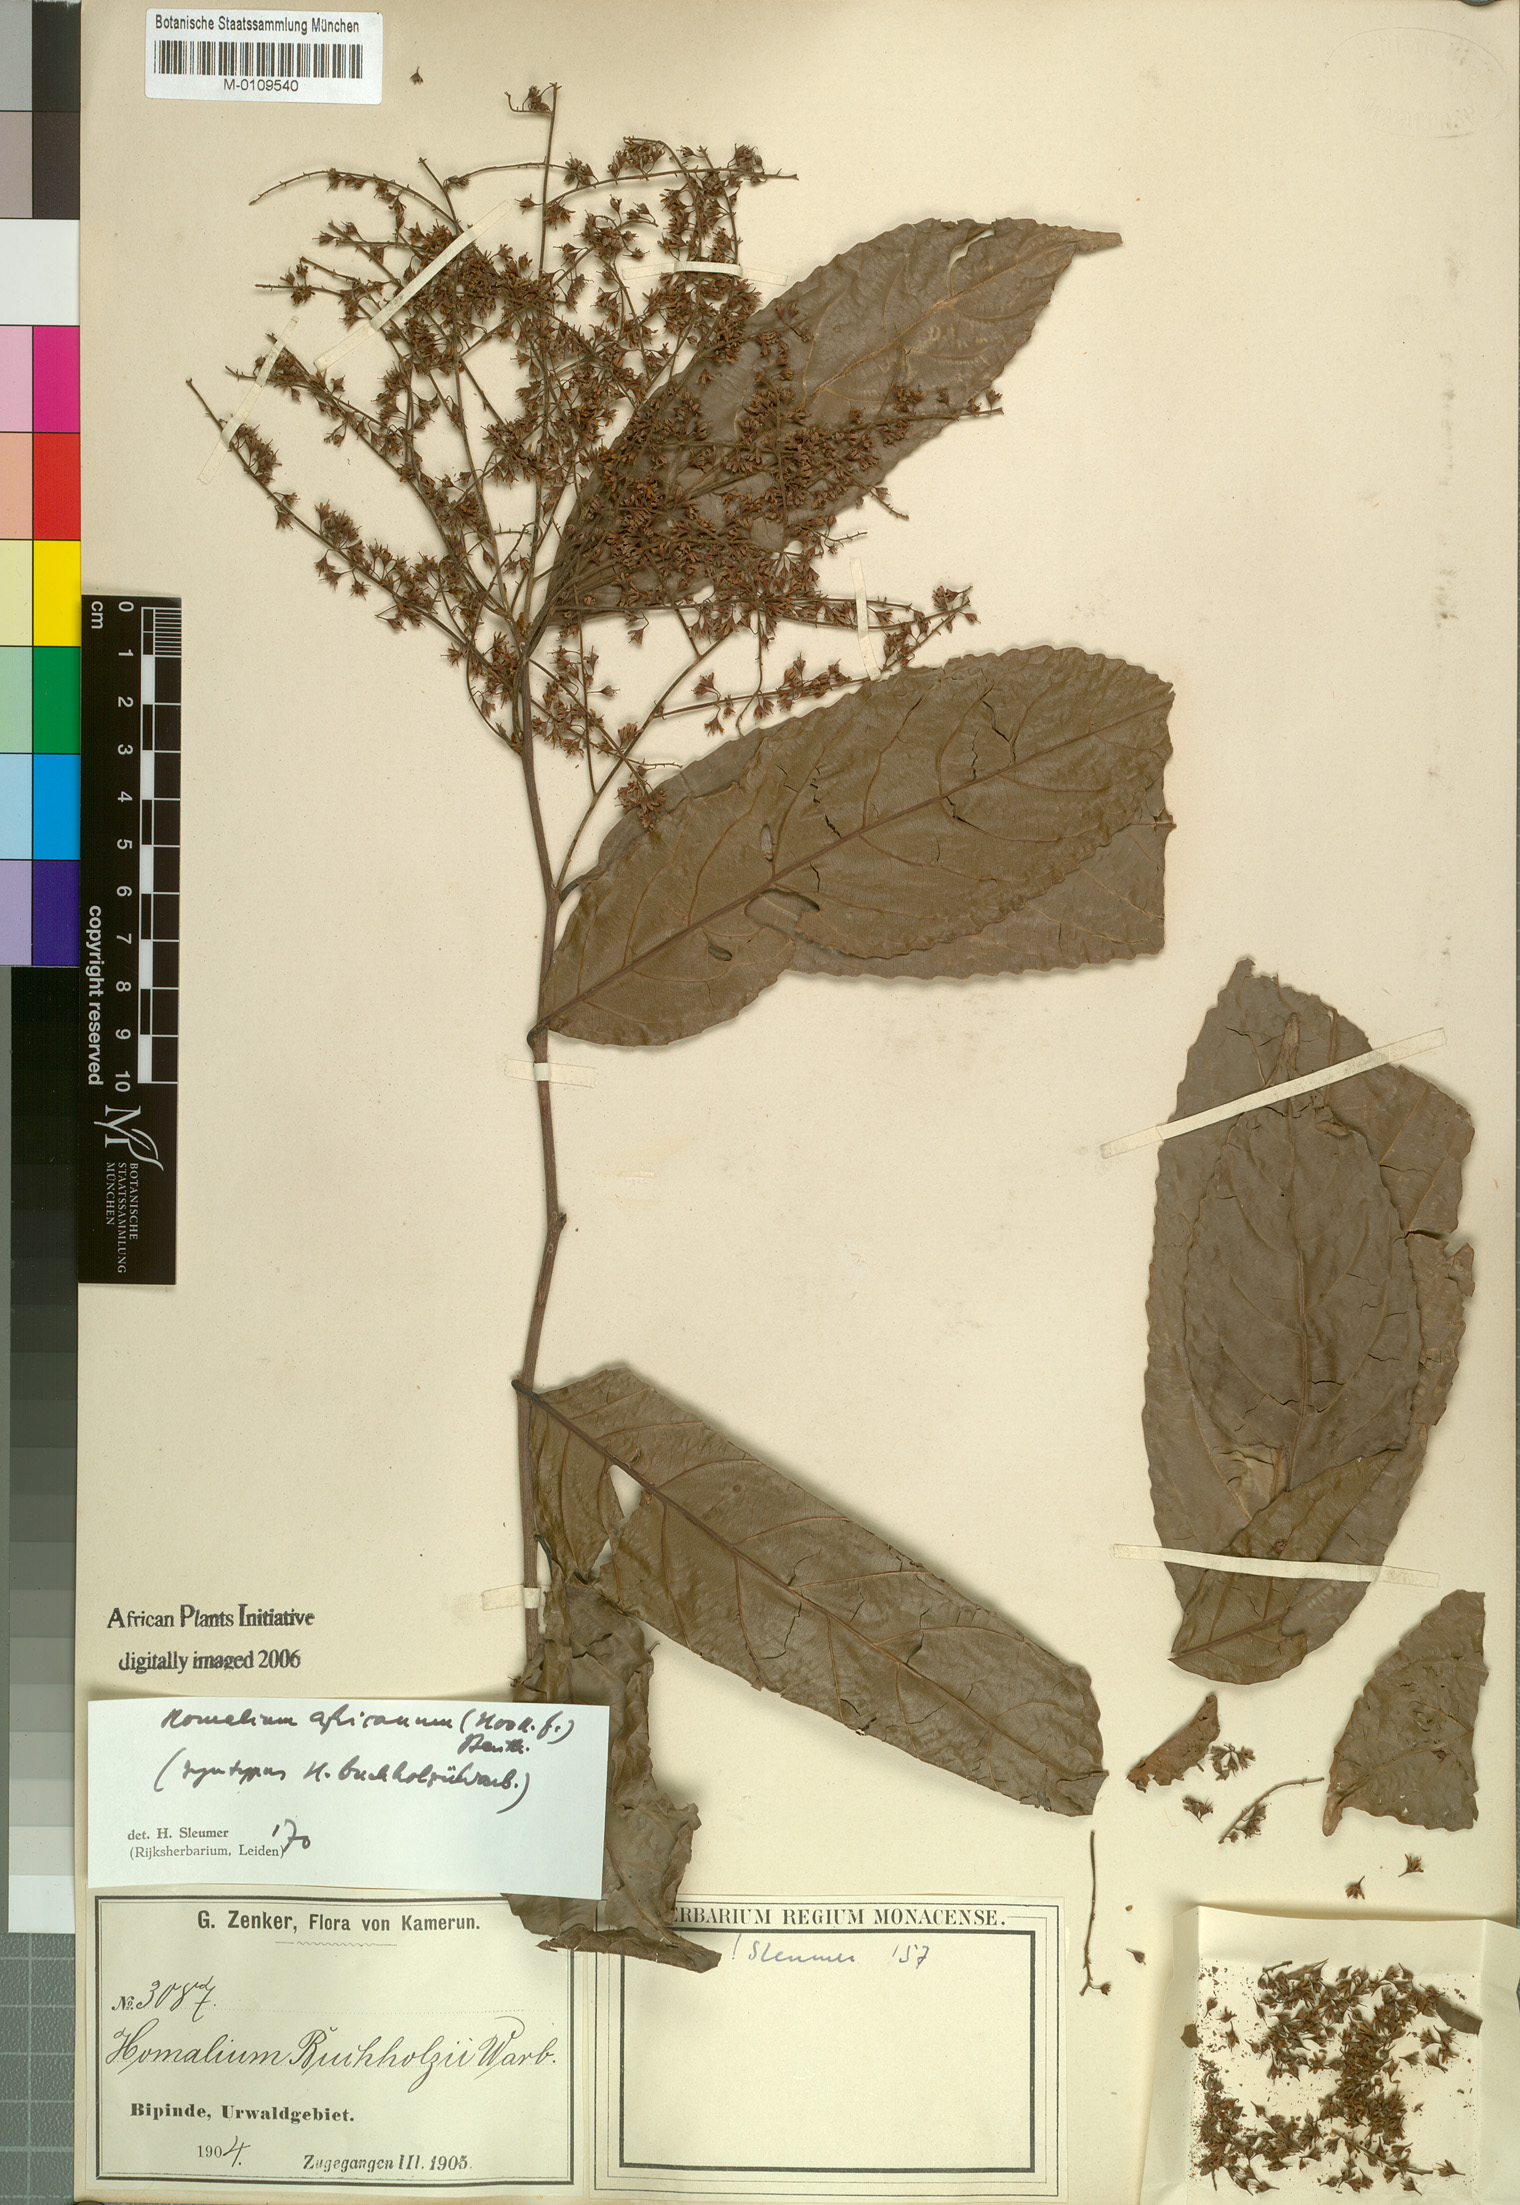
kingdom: Plantae
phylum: Tracheophyta
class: Magnoliopsida
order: Malpighiales
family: Salicaceae
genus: Homalium
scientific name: Homalium africanum
